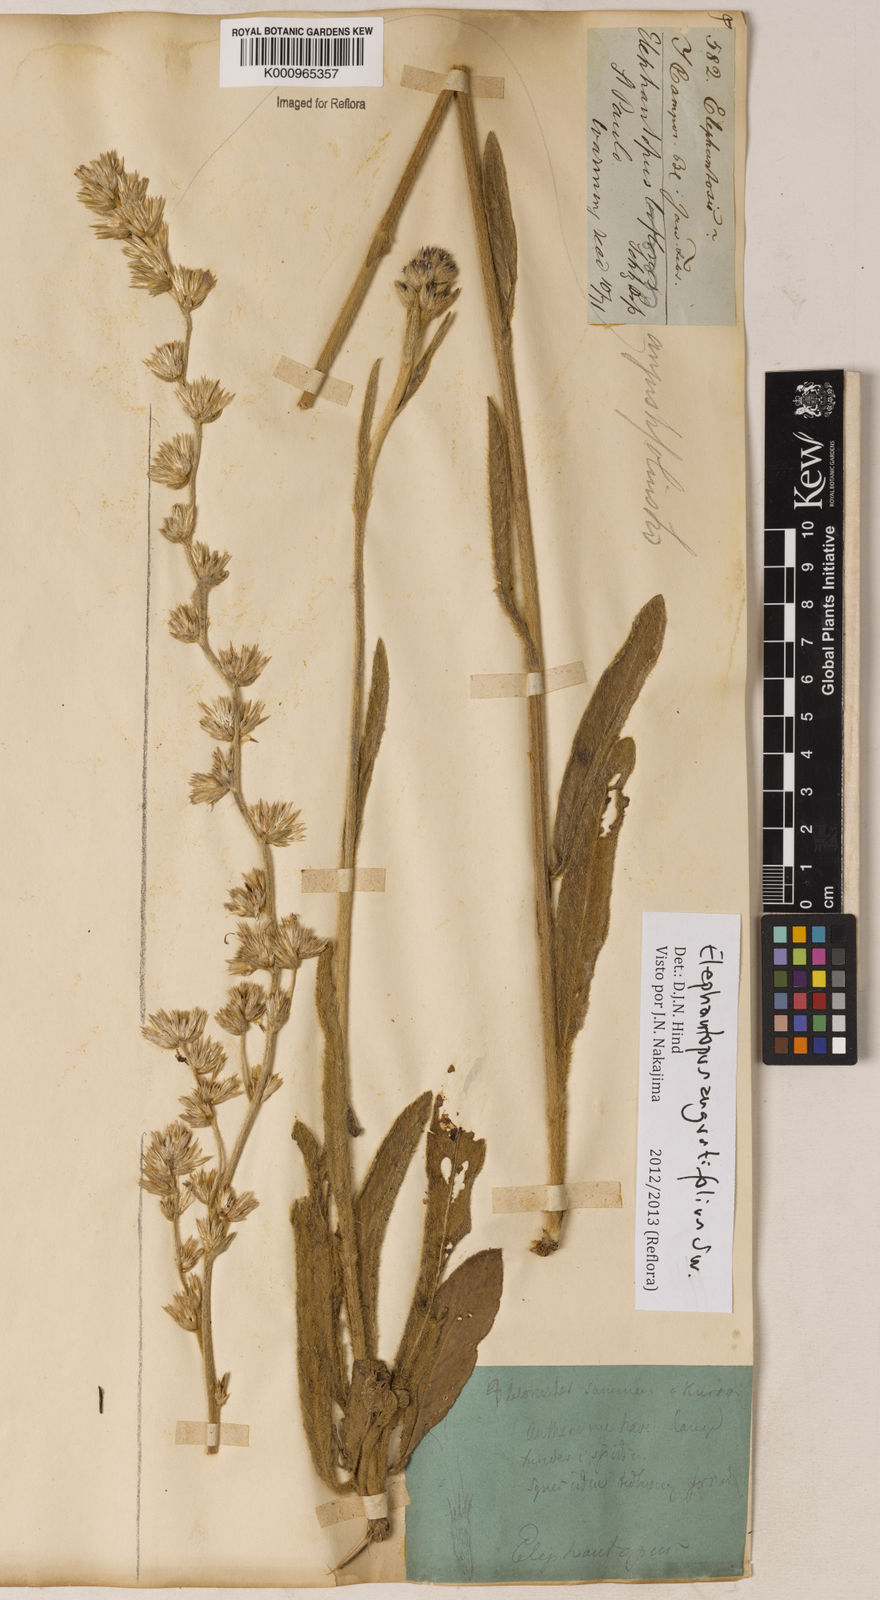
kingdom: Plantae
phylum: Tracheophyta
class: Magnoliopsida
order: Asterales
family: Asteraceae
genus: Orthopappus
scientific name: Orthopappus angustifolius
